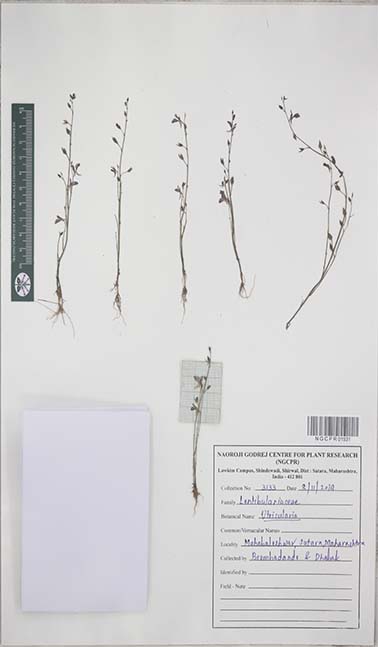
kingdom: Plantae
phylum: Tracheophyta
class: Magnoliopsida
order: Lamiales
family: Lentibulariaceae
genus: Utricularia
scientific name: Utricularia
